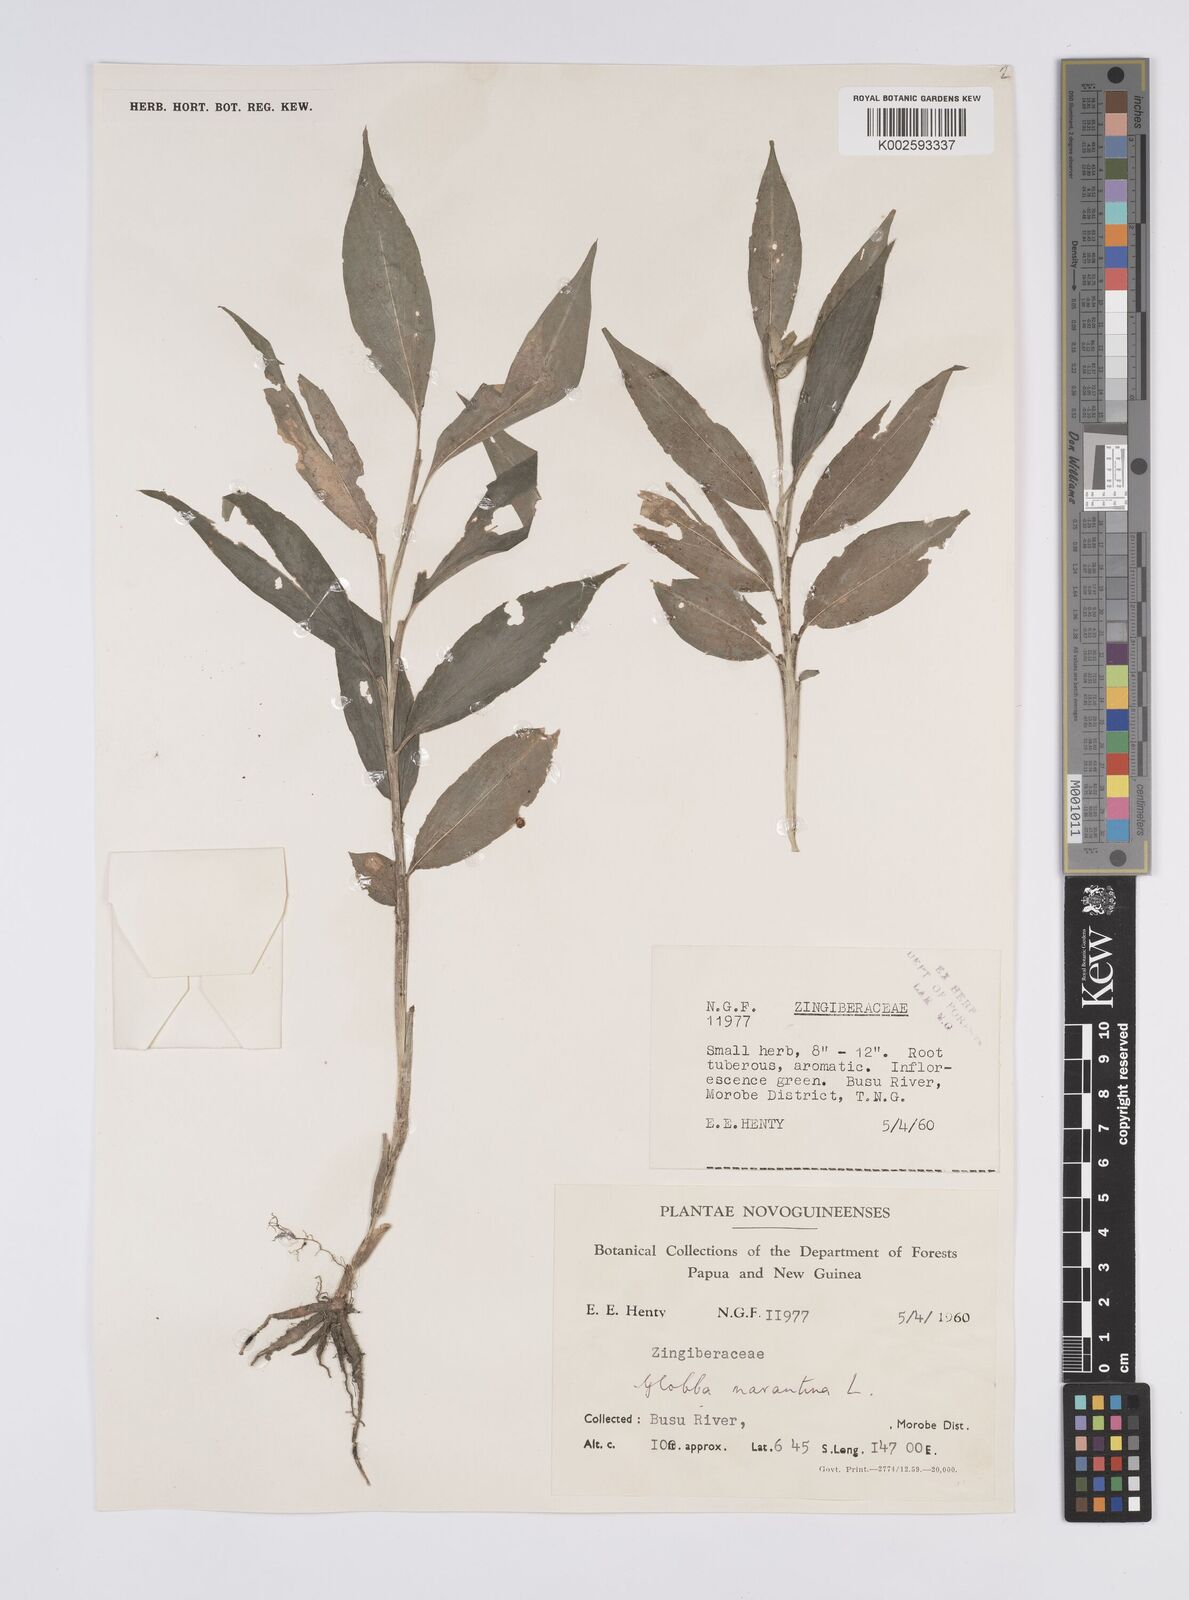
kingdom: Plantae
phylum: Tracheophyta
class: Liliopsida
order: Zingiberales
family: Zingiberaceae
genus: Globba
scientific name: Globba marantina
